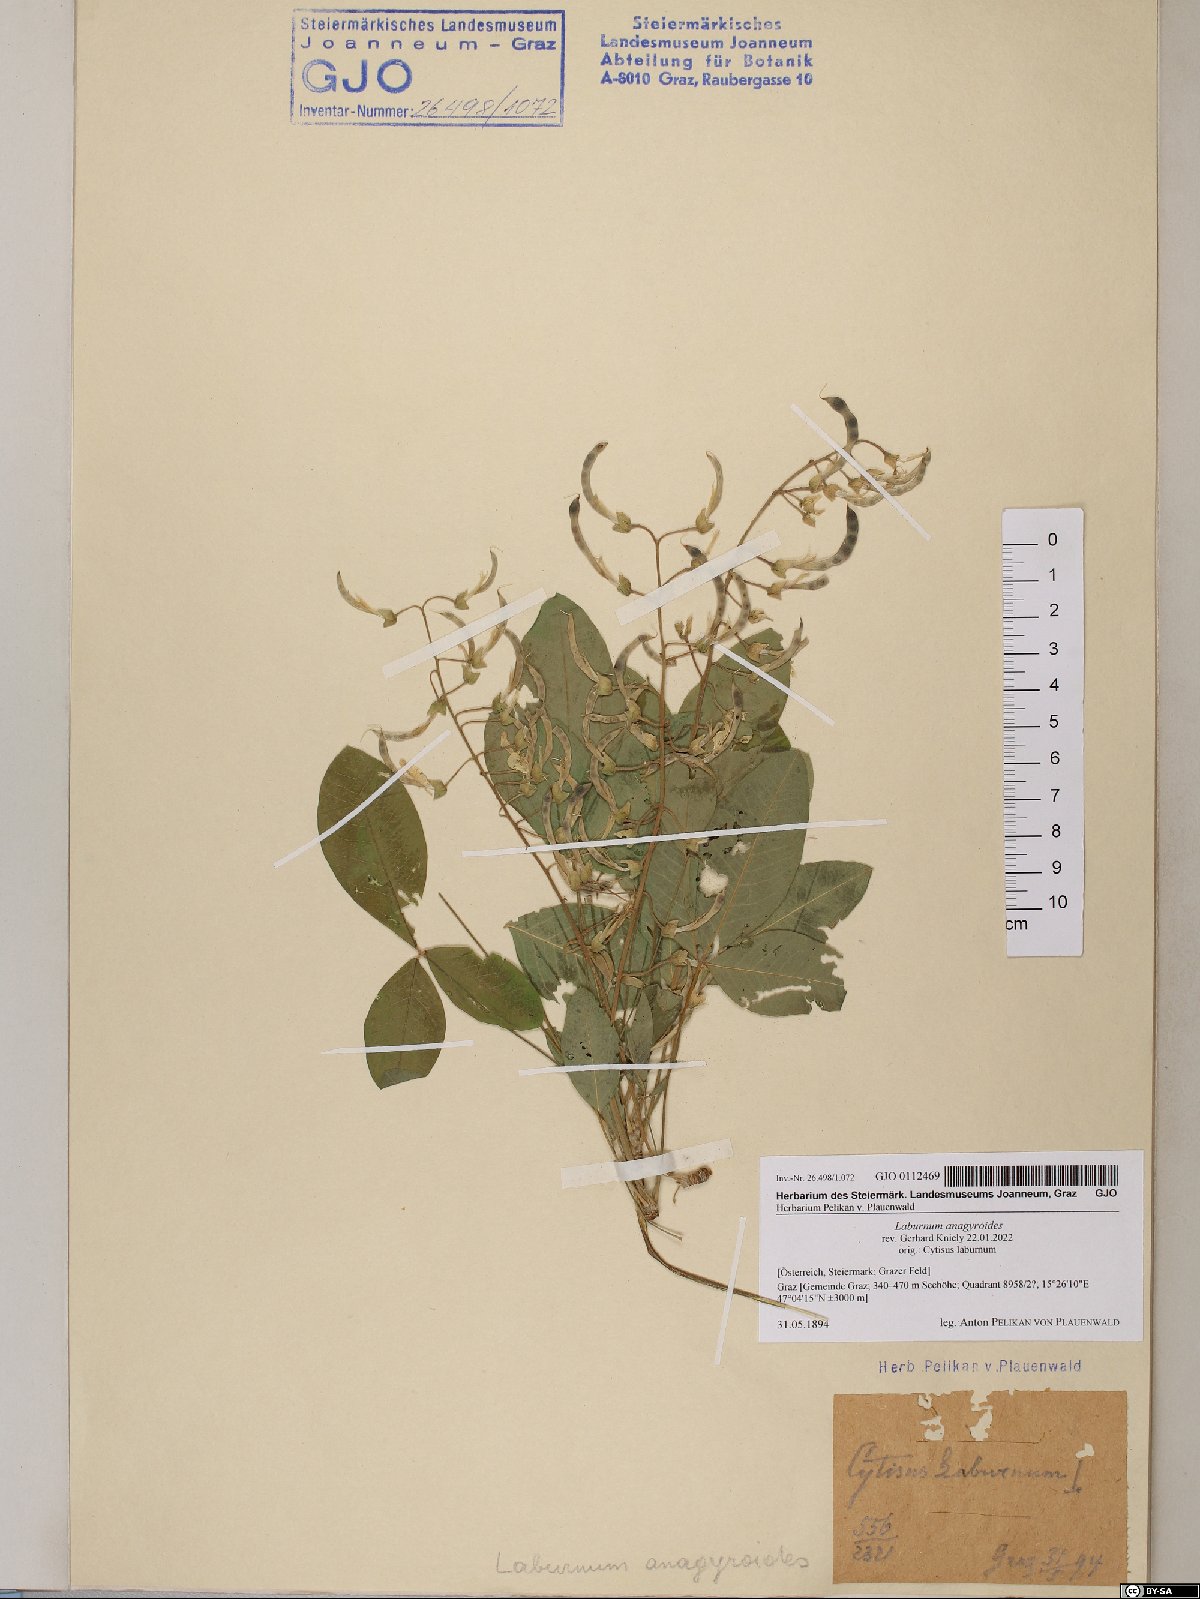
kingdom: Plantae
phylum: Tracheophyta
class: Magnoliopsida
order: Fabales
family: Fabaceae
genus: Laburnum
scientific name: Laburnum anagyroides
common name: Laburnum
